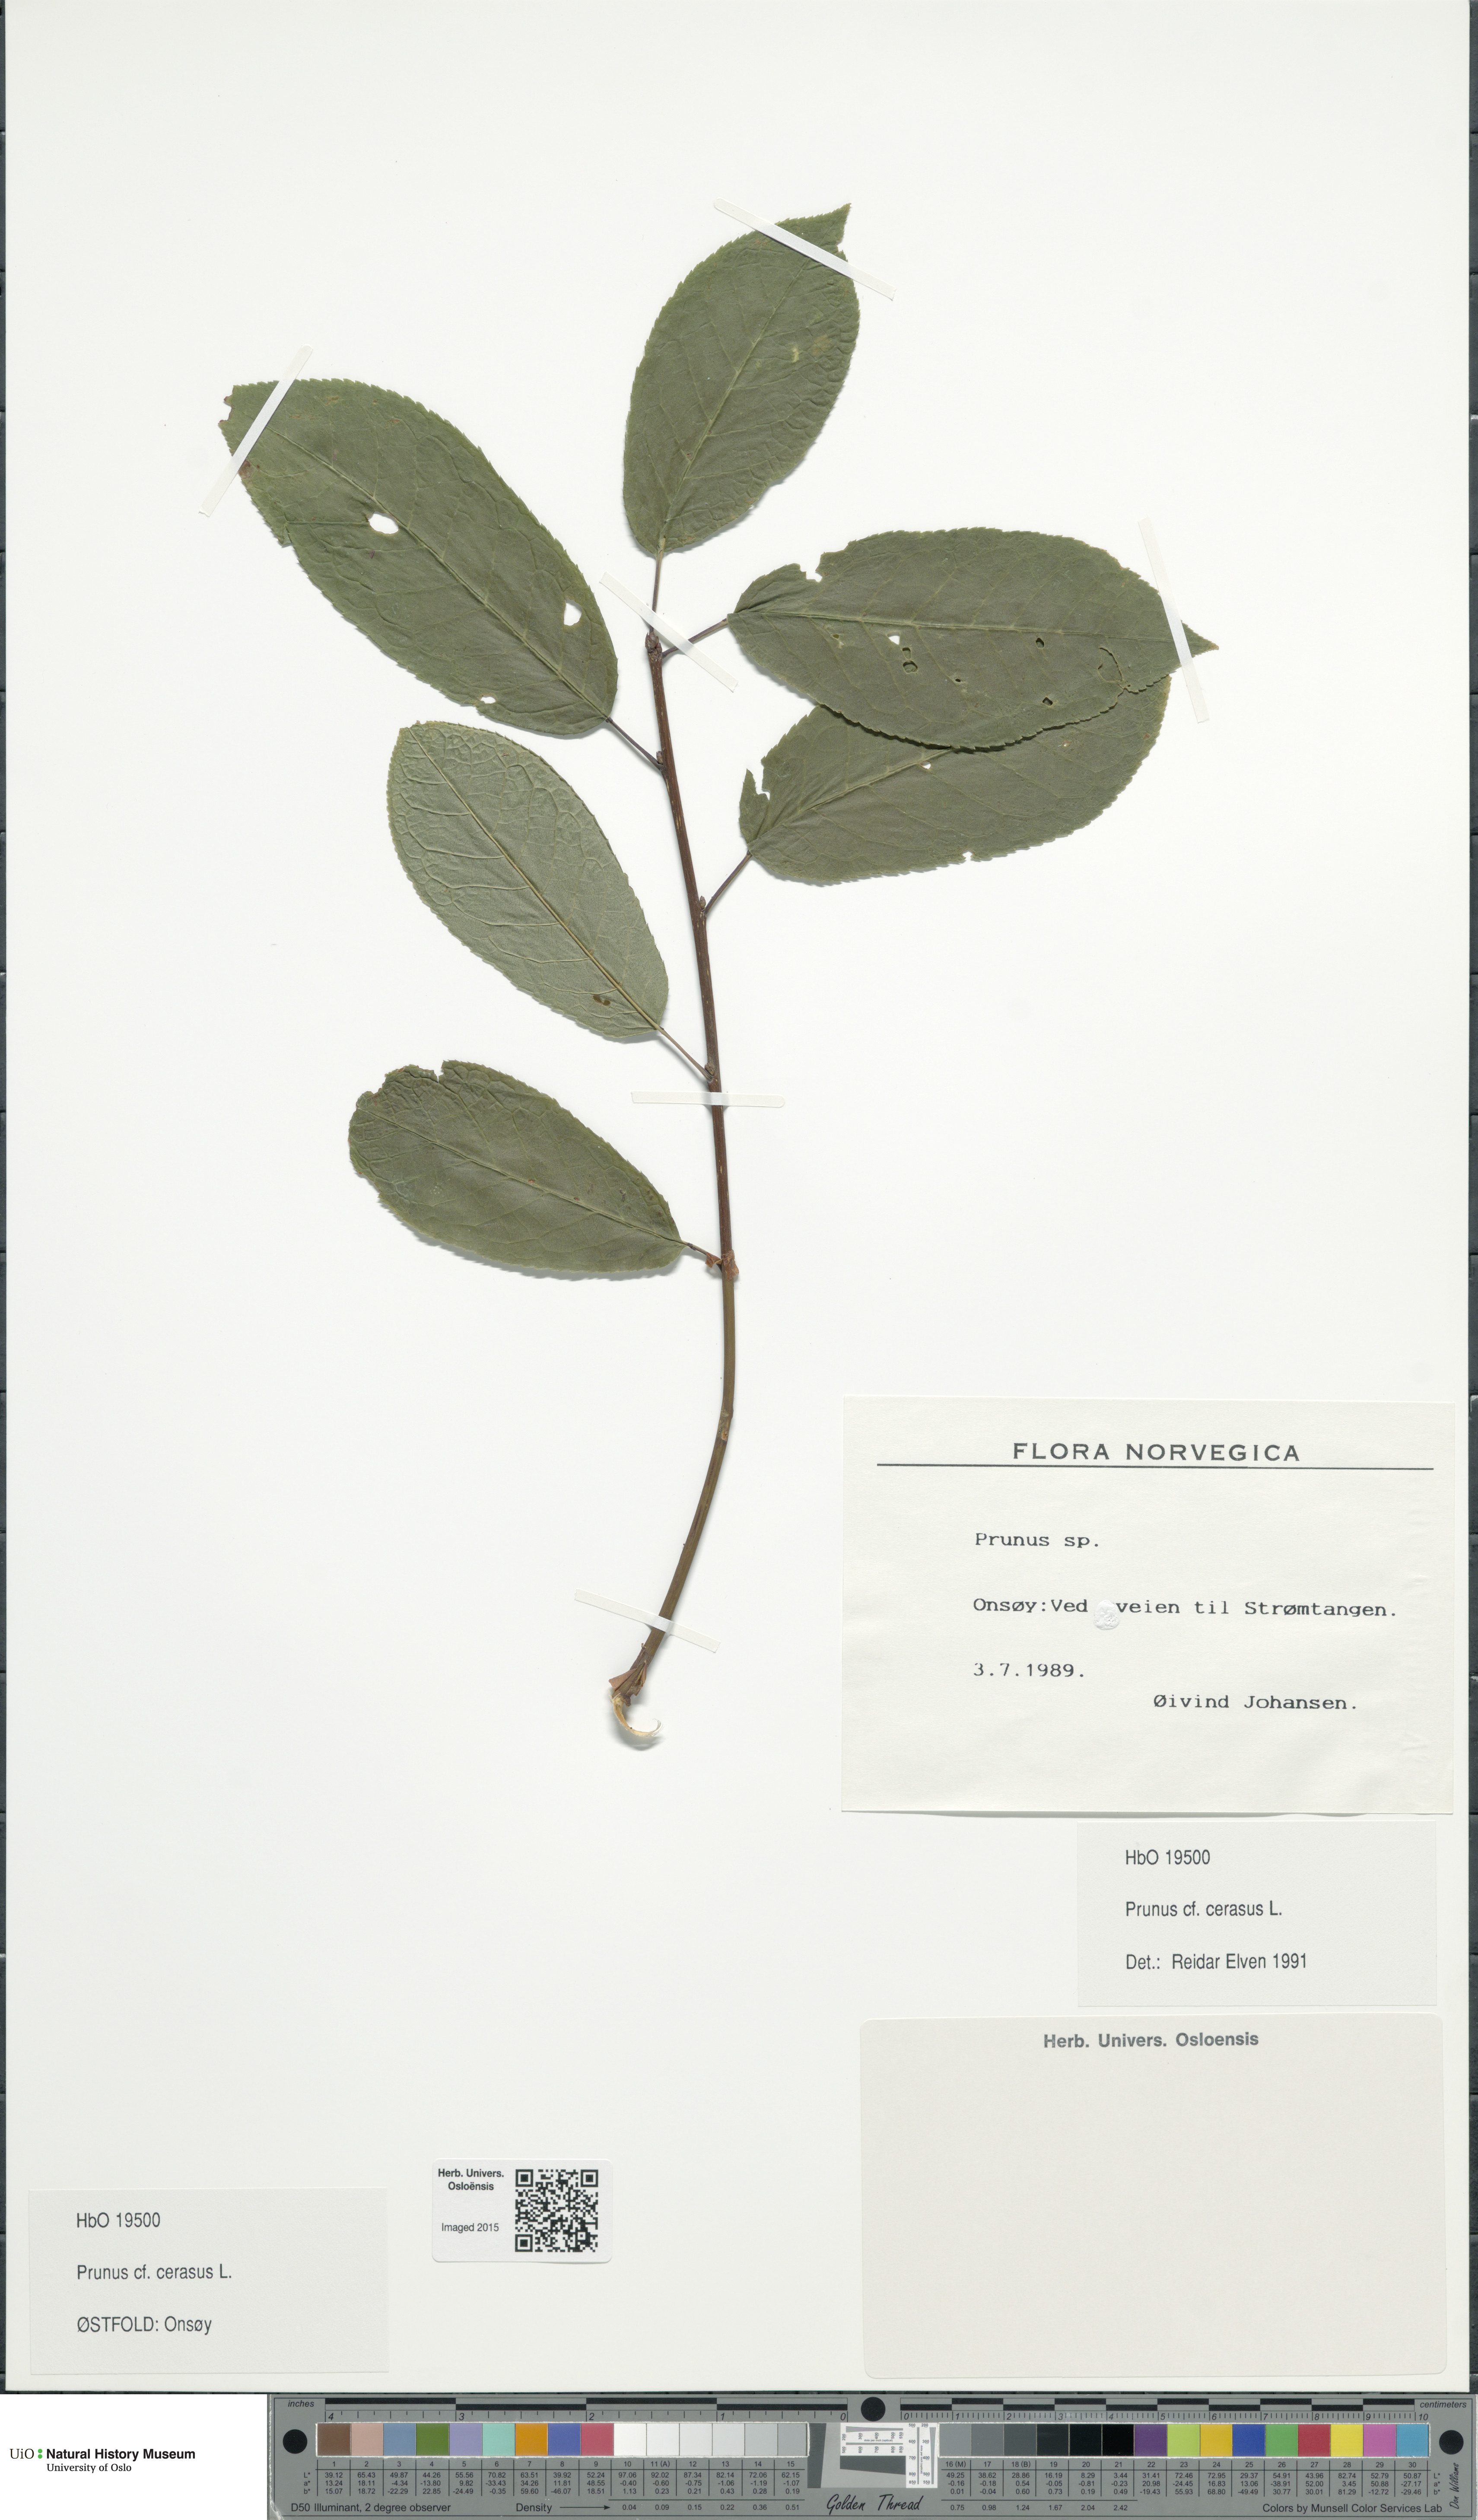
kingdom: Plantae
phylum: Tracheophyta
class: Magnoliopsida
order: Rosales
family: Rosaceae
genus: Prunus
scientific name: Prunus cerasus
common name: Morello cherry
